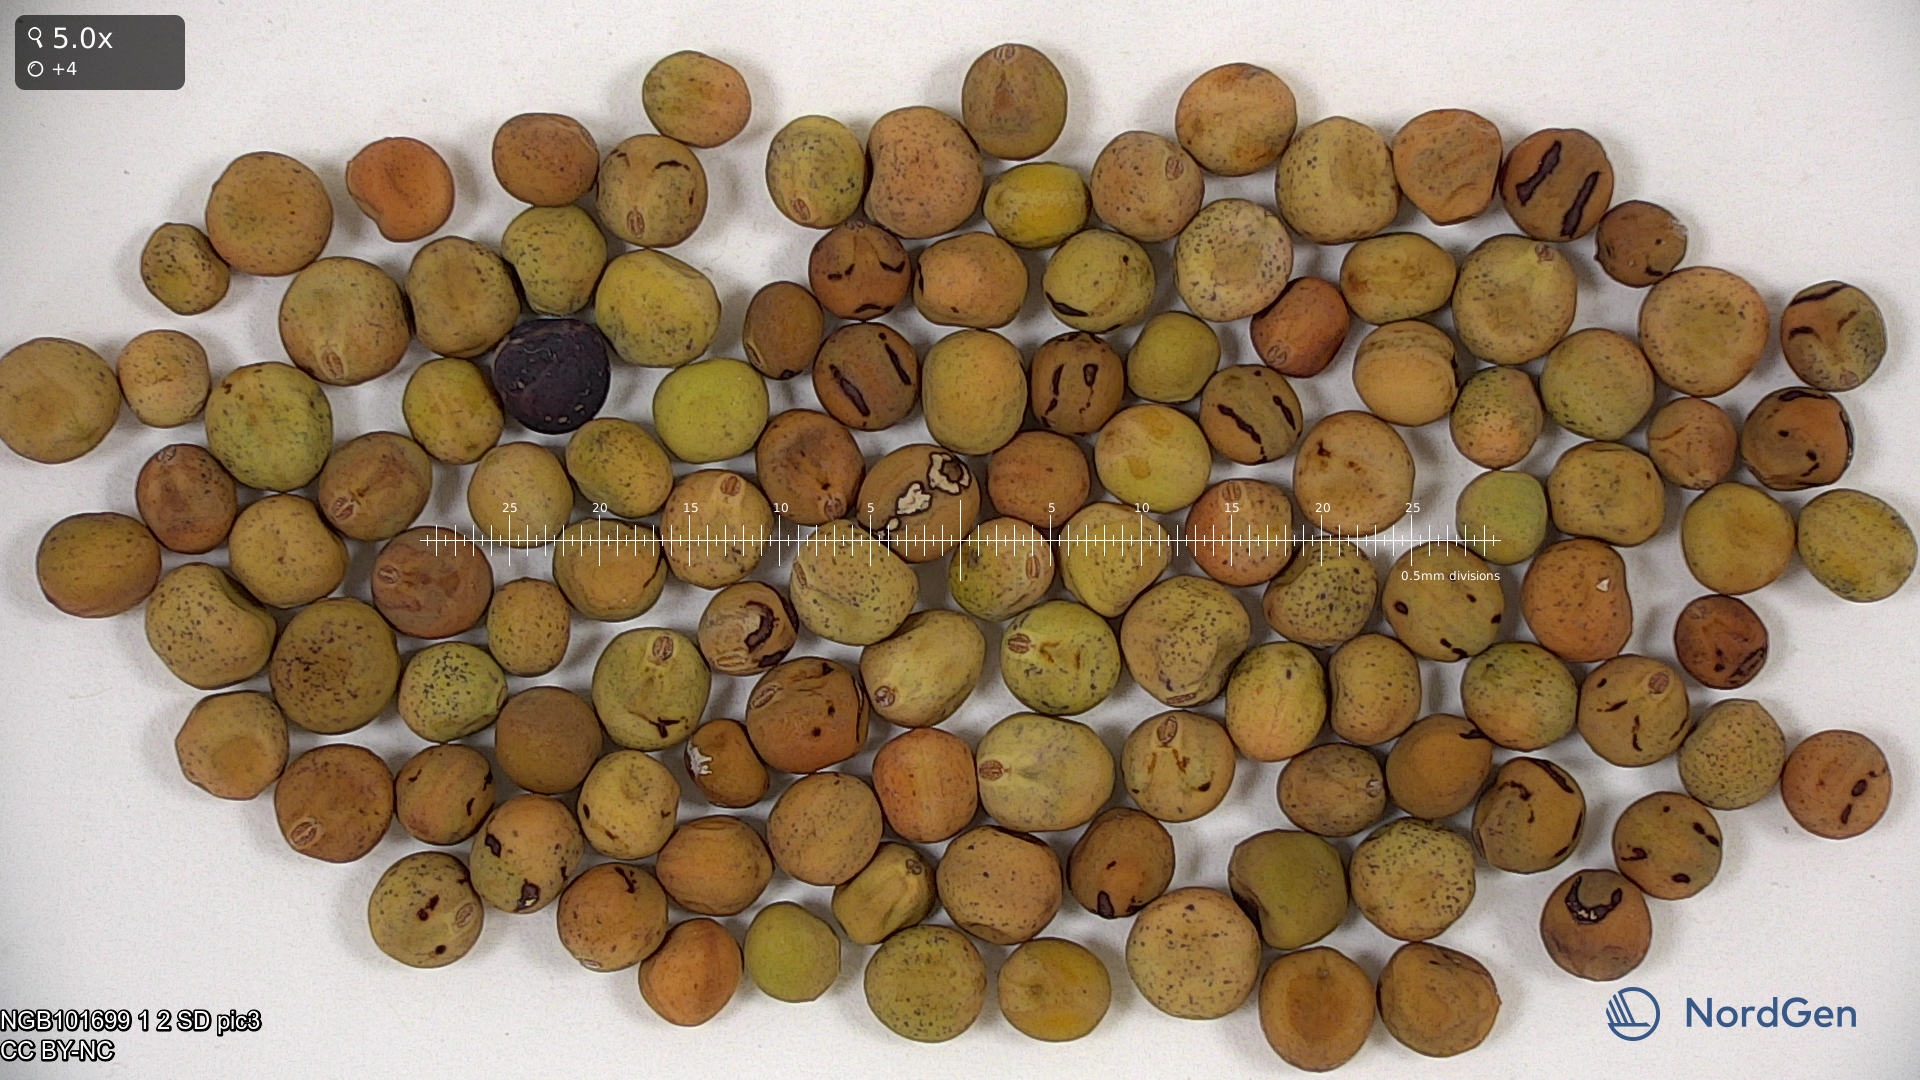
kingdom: Plantae
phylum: Tracheophyta
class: Magnoliopsida
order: Fabales
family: Fabaceae
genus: Lathyrus
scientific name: Lathyrus oleraceus
